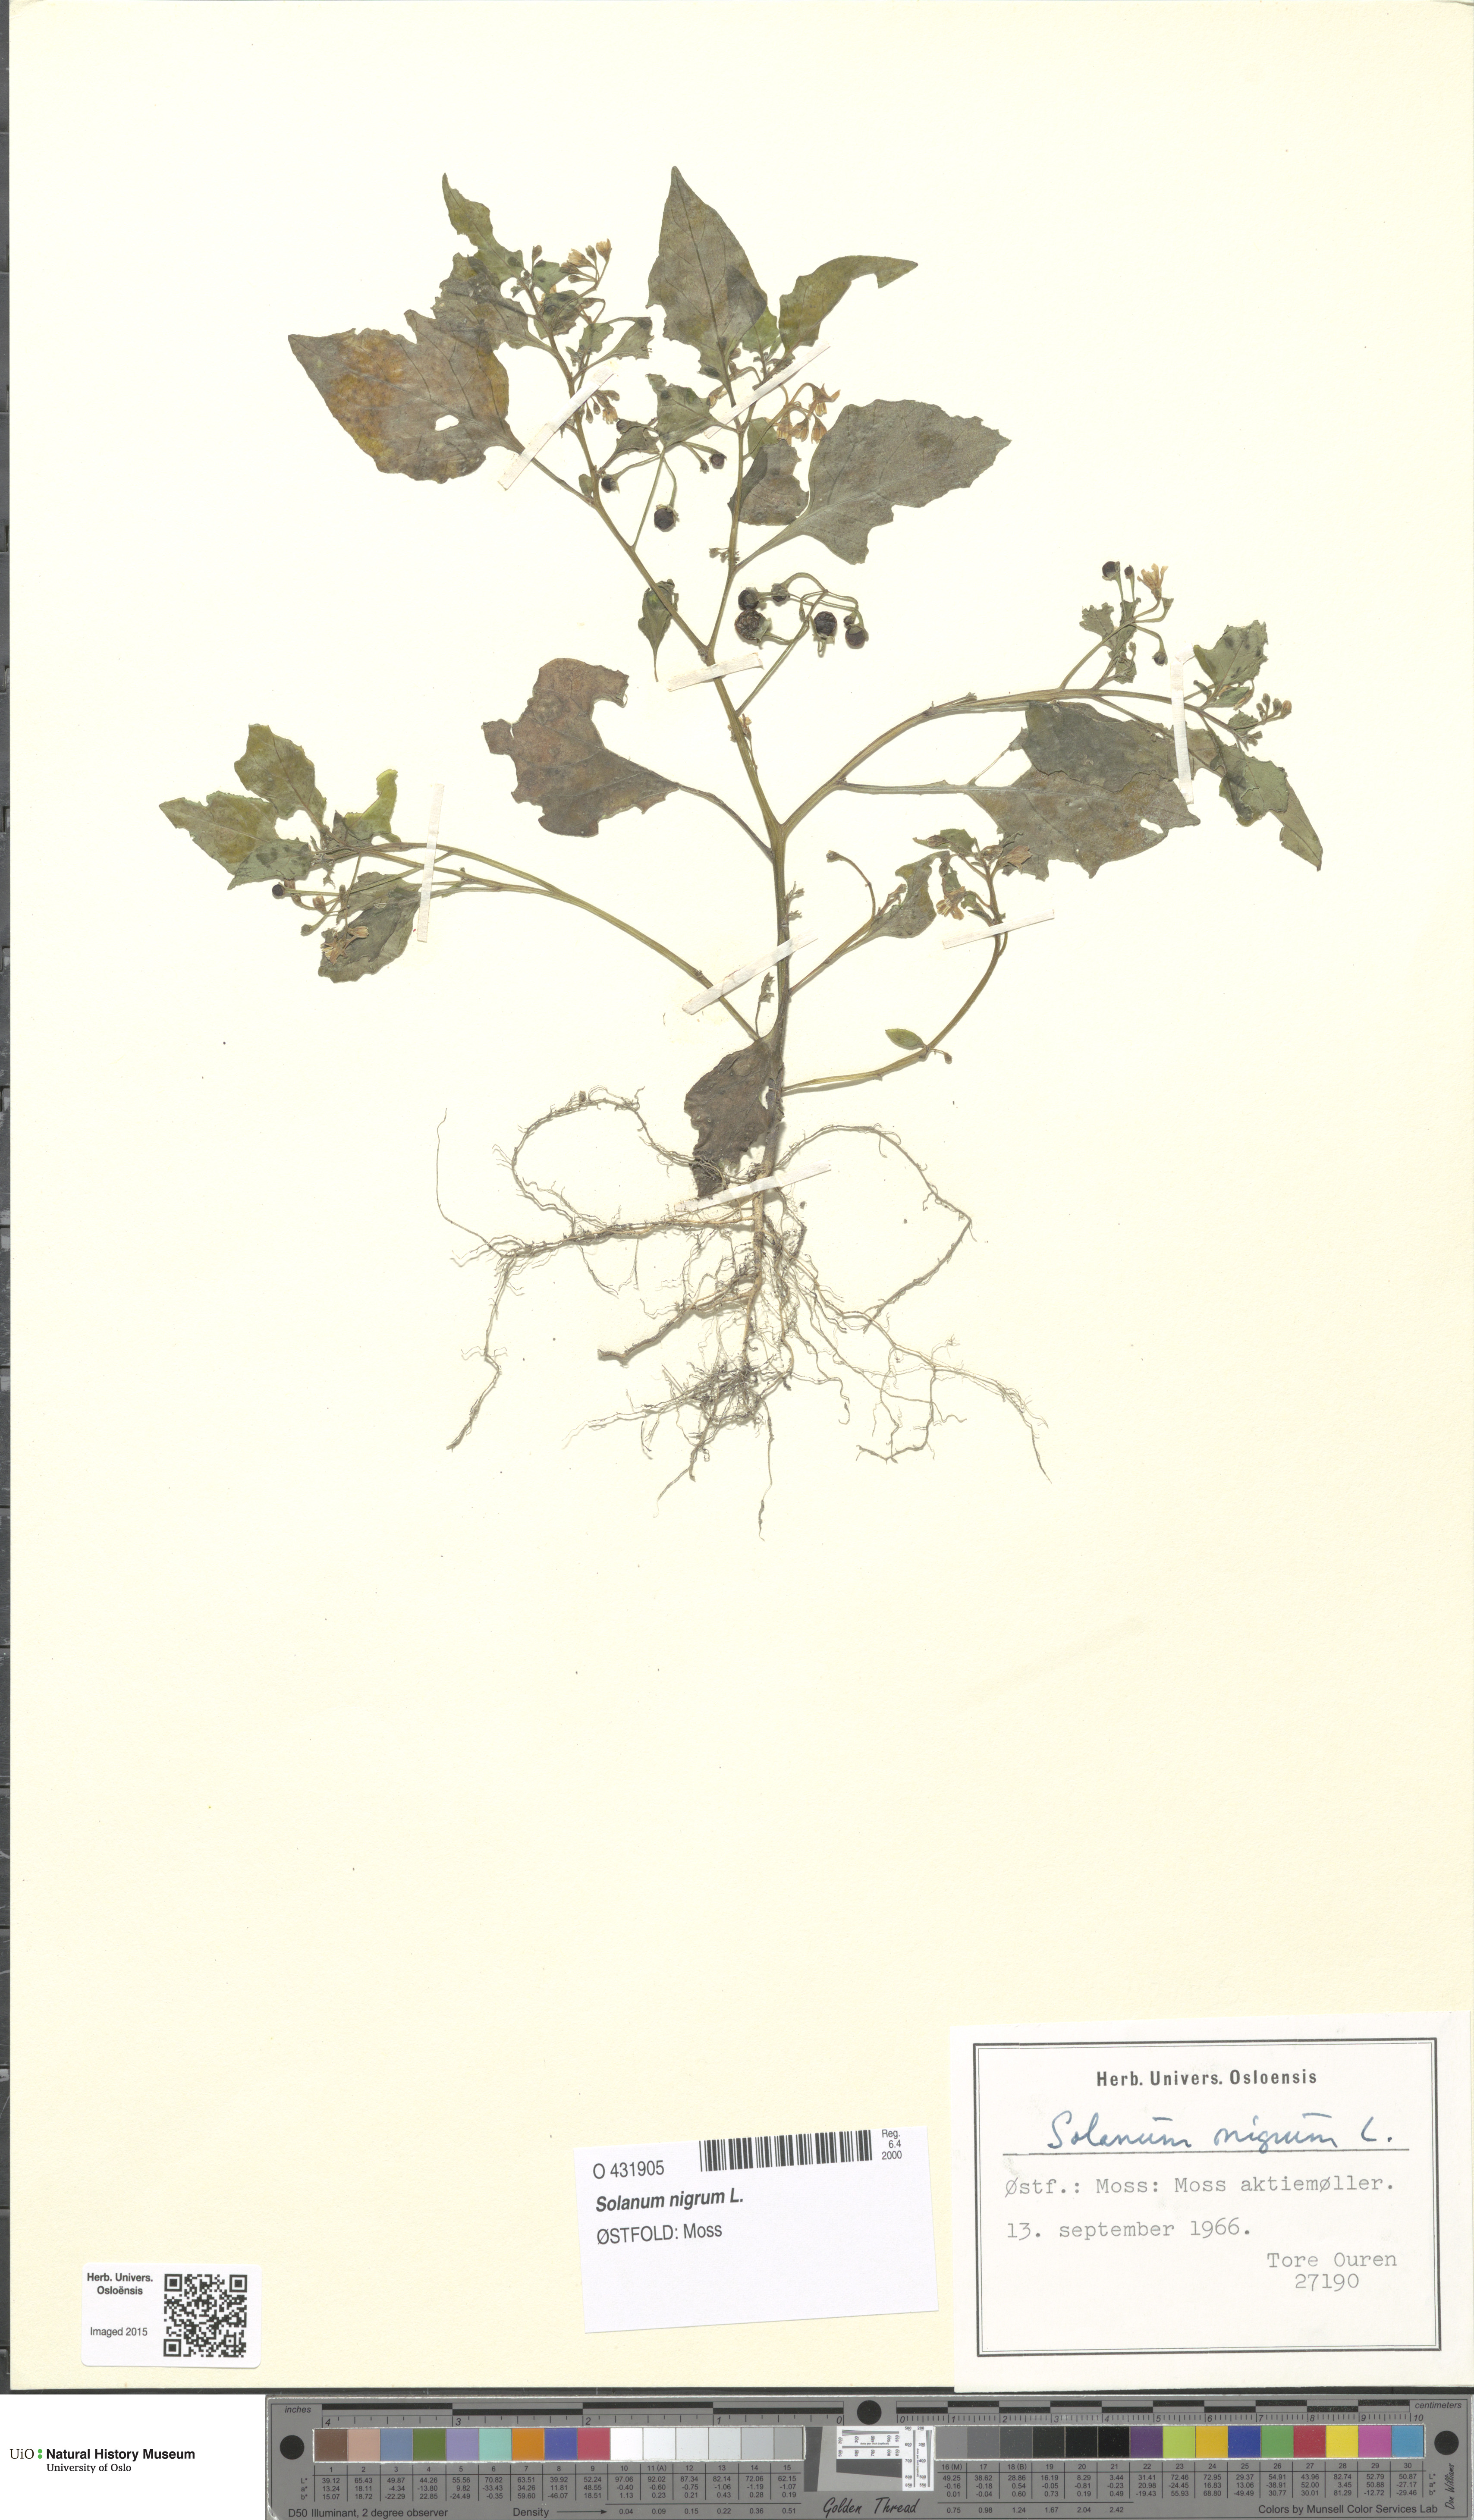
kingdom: Plantae
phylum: Tracheophyta
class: Magnoliopsida
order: Solanales
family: Solanaceae
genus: Solanum
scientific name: Solanum nigrum
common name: Black nightshade
